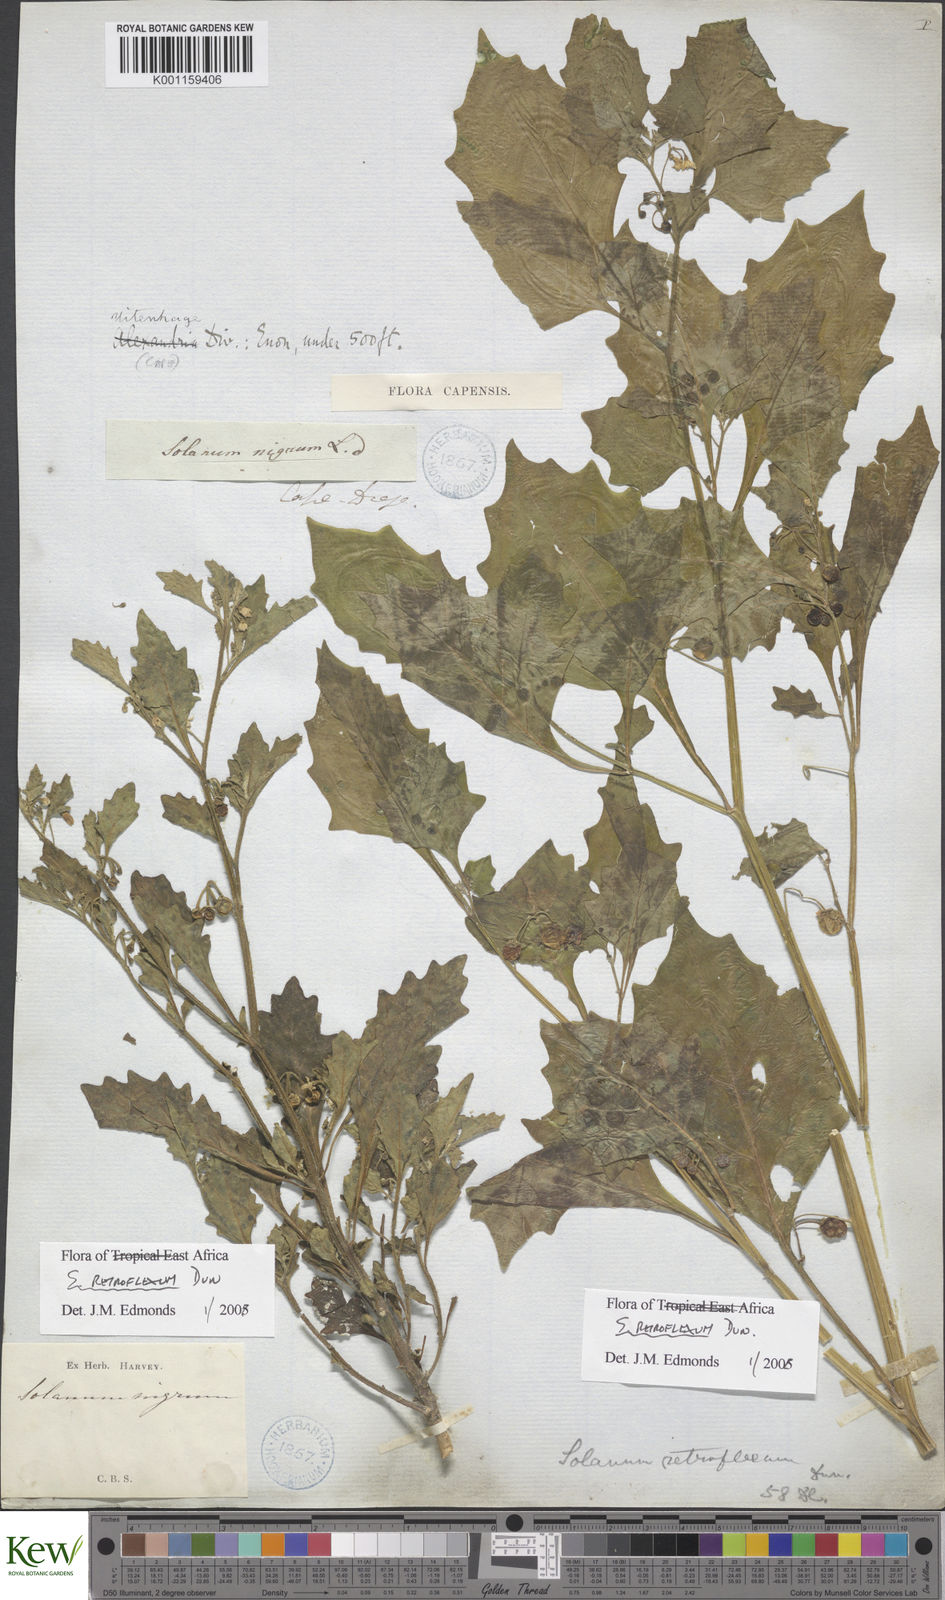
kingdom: Plantae
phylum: Tracheophyta
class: Magnoliopsida
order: Solanales
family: Solanaceae
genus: Solanum
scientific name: Solanum tarderemotum
